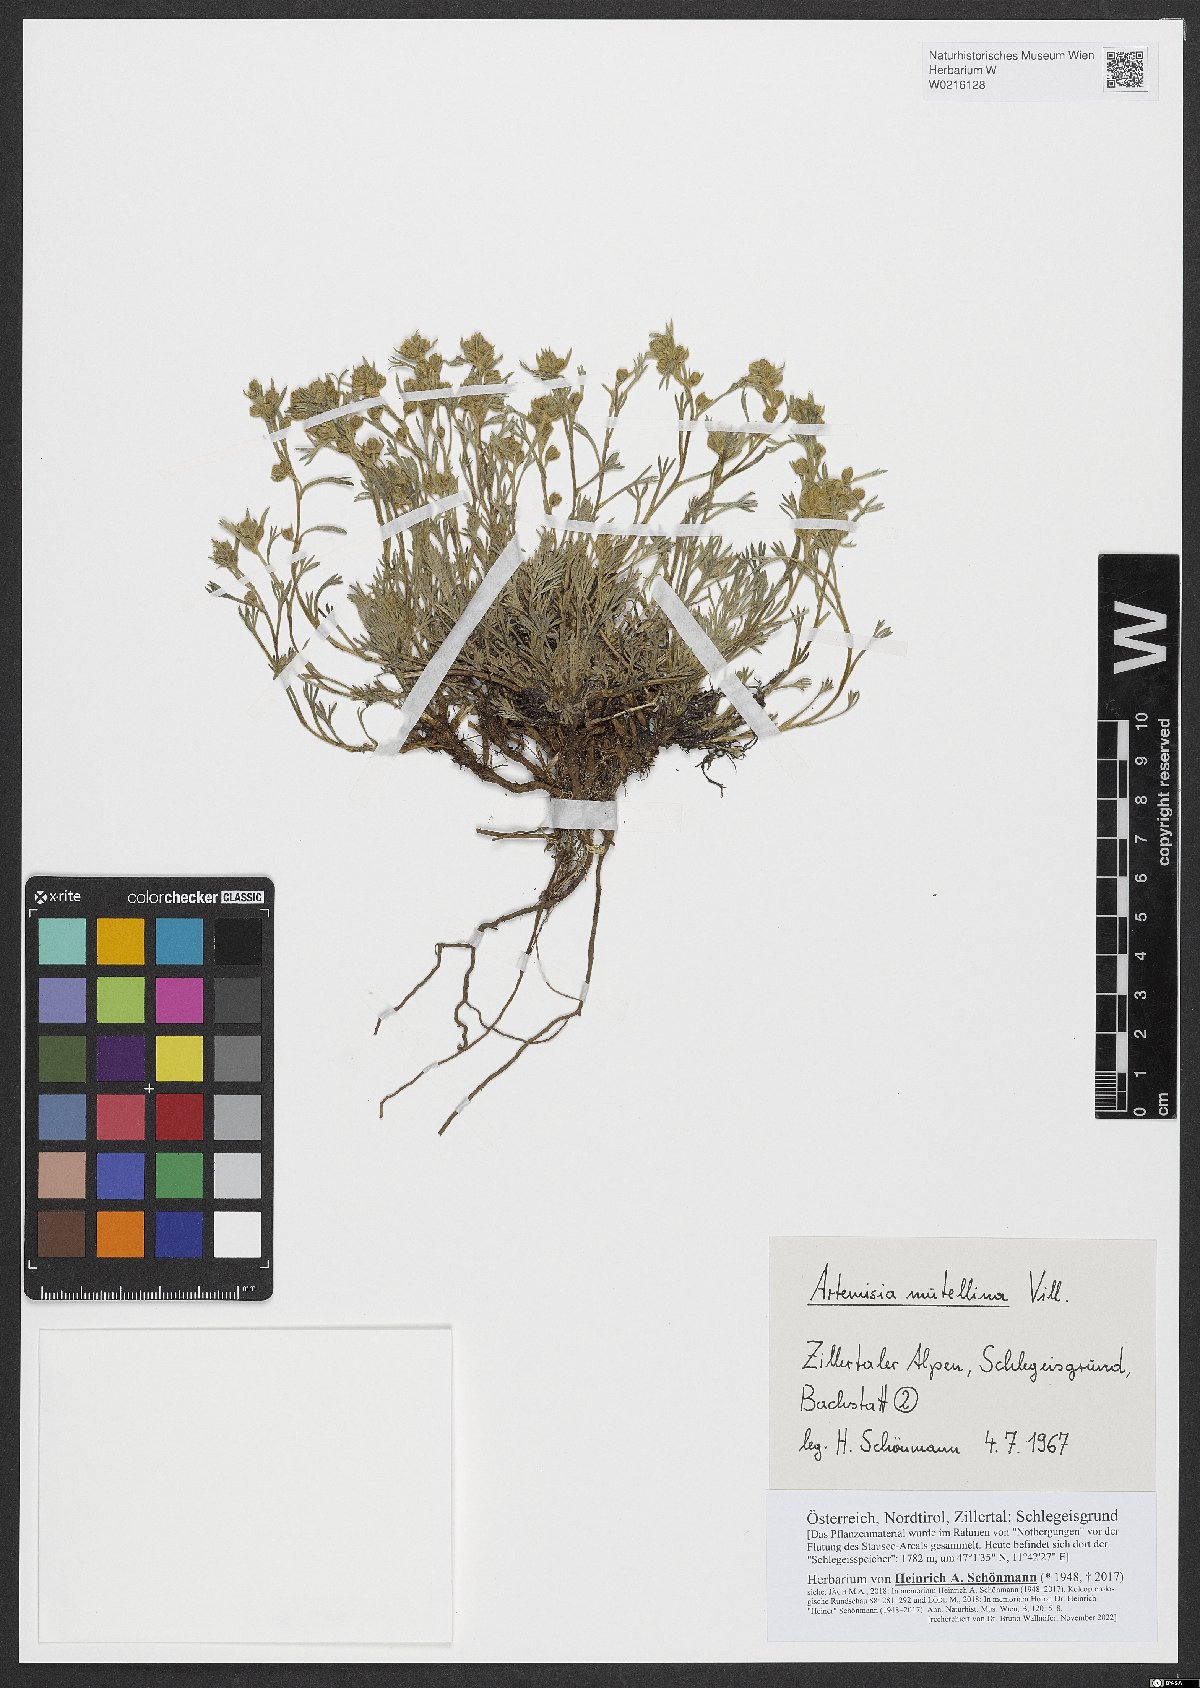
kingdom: Plantae
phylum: Tracheophyta
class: Magnoliopsida
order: Asterales
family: Asteraceae
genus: Artemisia
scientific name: Artemisia mutellina
